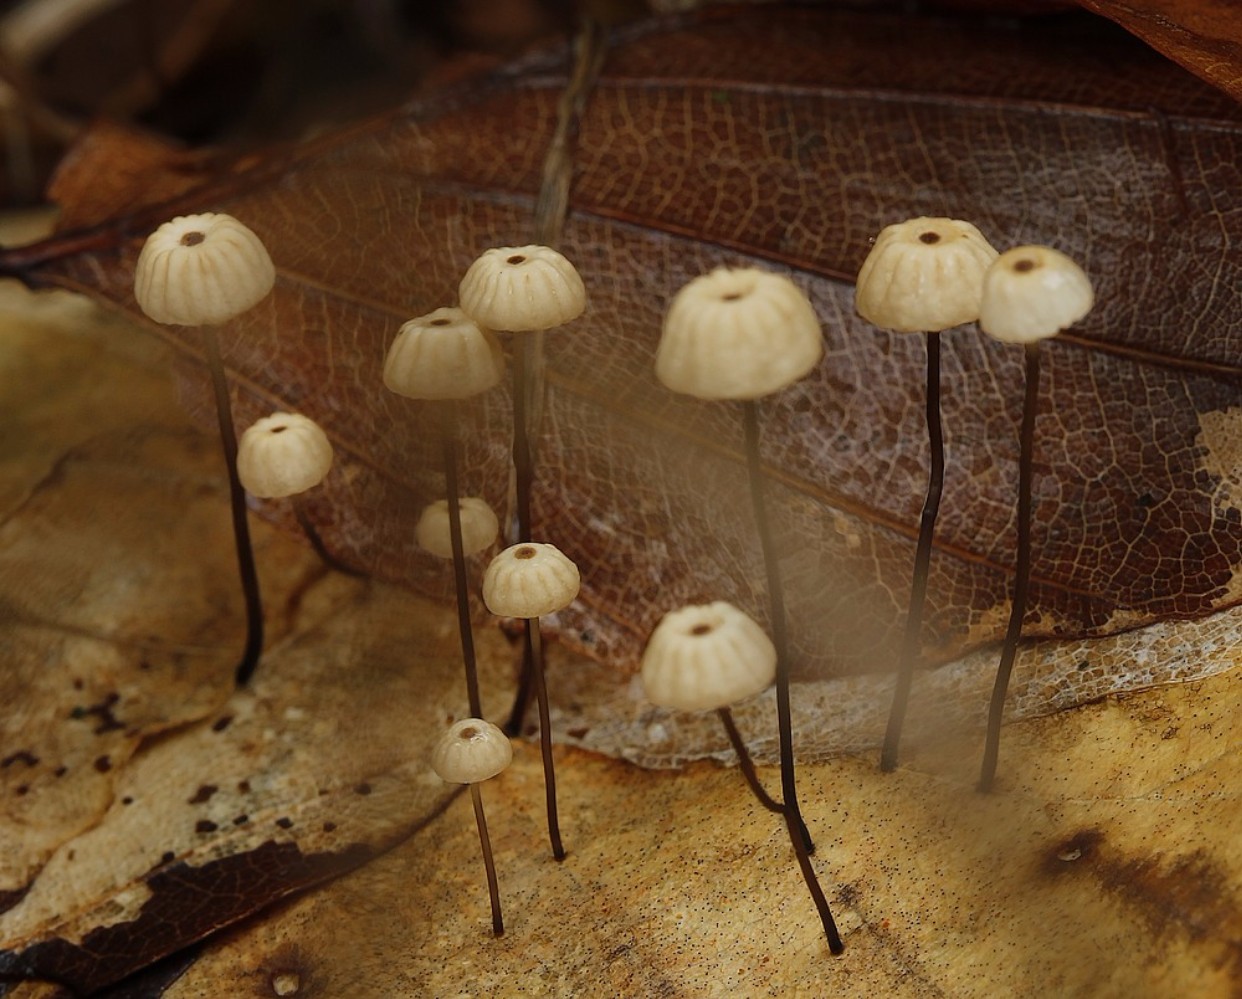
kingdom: Fungi
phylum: Basidiomycota
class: Agaricomycetes
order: Agaricales
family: Marasmiaceae
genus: Marasmius
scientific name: Marasmius bulliardii
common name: furet bruskhat
